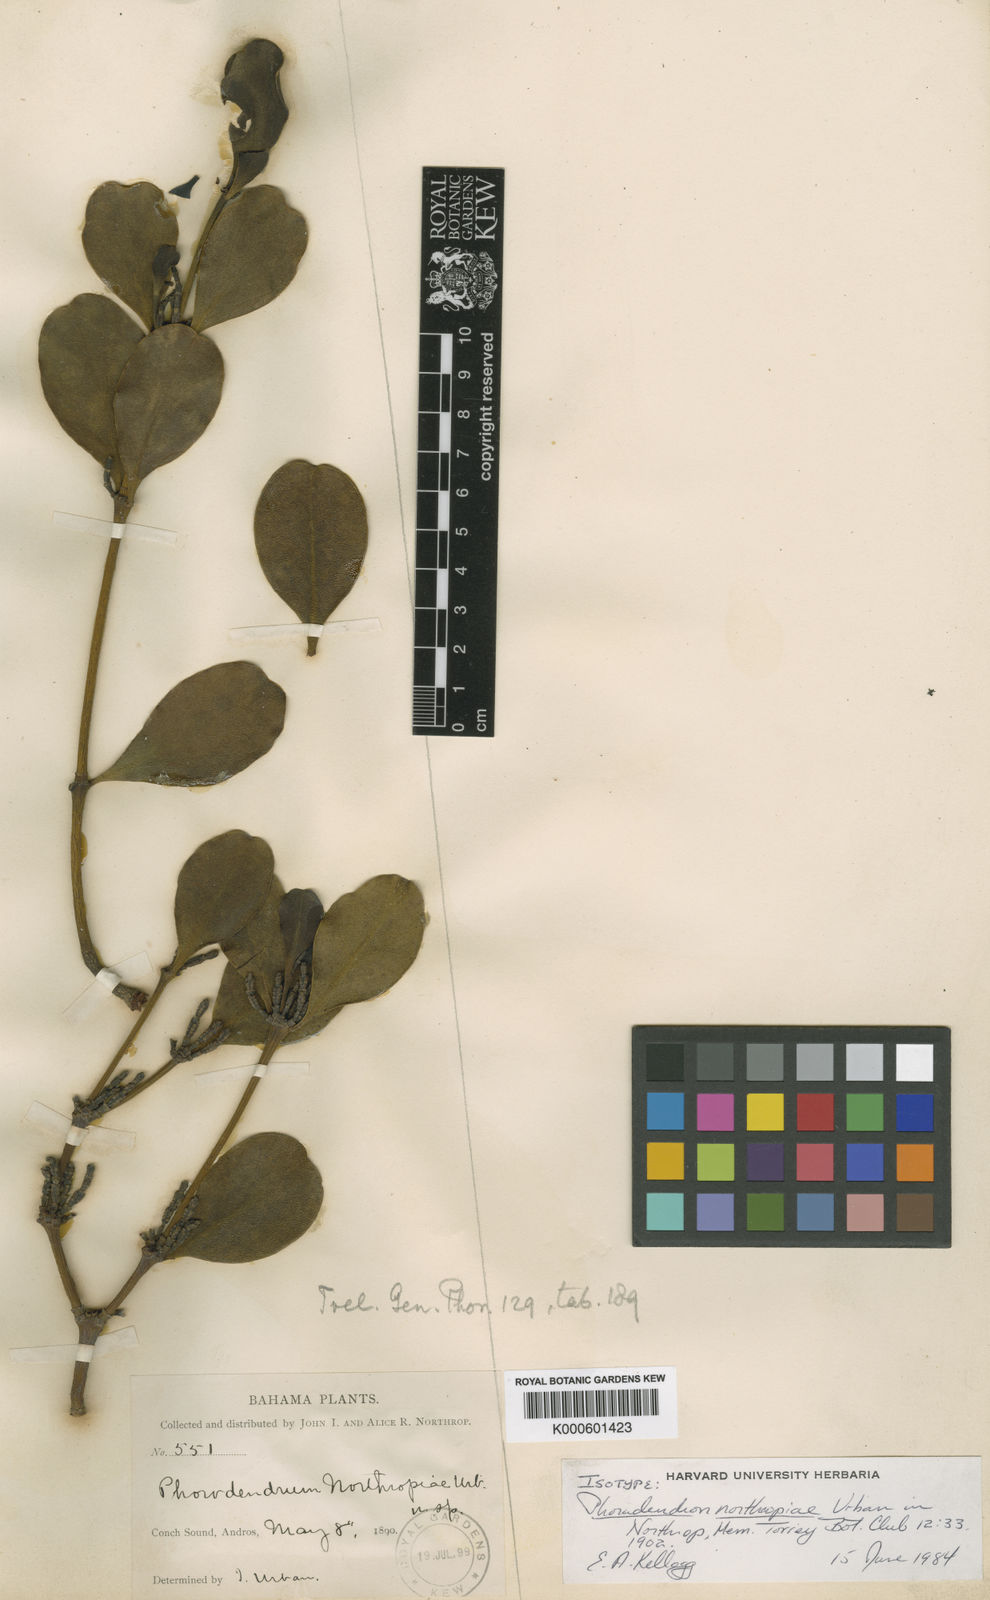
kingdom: Plantae
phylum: Tracheophyta
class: Magnoliopsida
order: Santalales
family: Viscaceae
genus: Phoradendron
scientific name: Phoradendron northropiae
